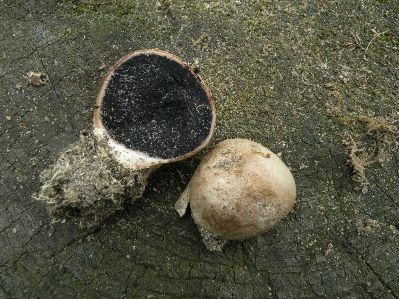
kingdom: Fungi
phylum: Basidiomycota
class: Agaricomycetes
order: Boletales
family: Sclerodermataceae
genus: Scleroderma
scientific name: Scleroderma bovista
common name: bovist-bruskbold
